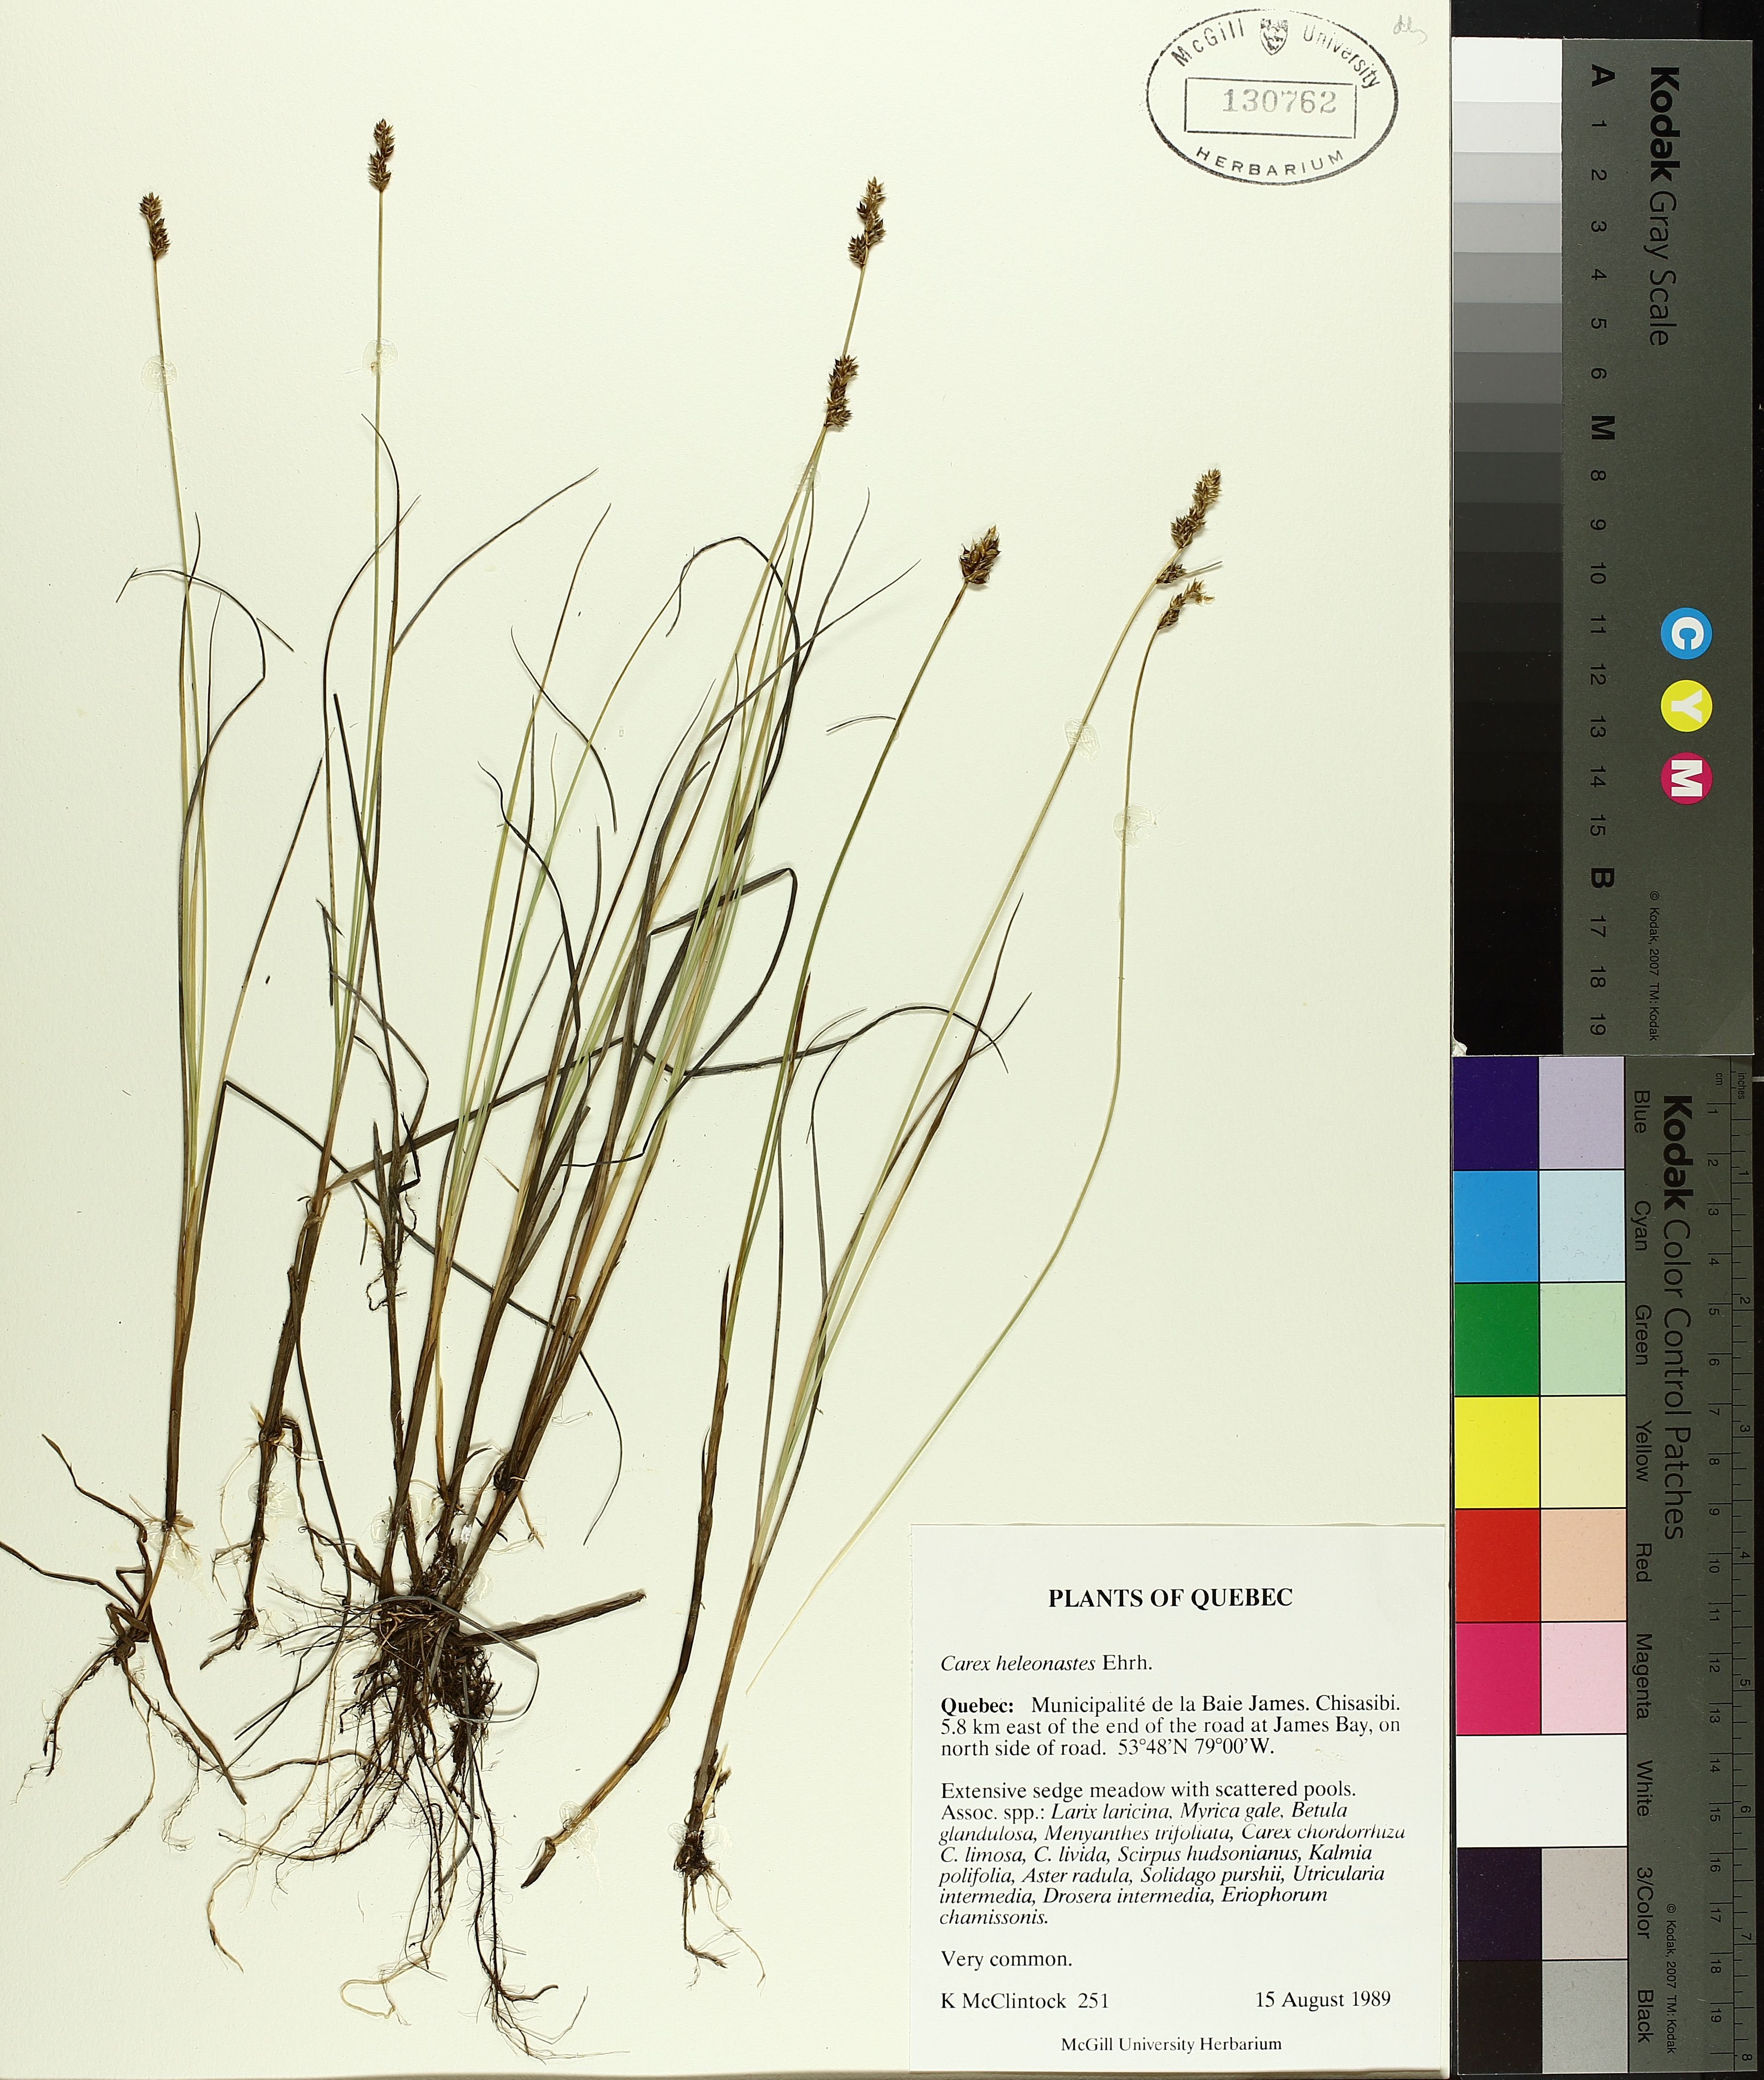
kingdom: Plantae
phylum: Tracheophyta
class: Liliopsida
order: Poales
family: Cyperaceae
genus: Carex
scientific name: Carex heleonastes
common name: Hudson bay sedge
